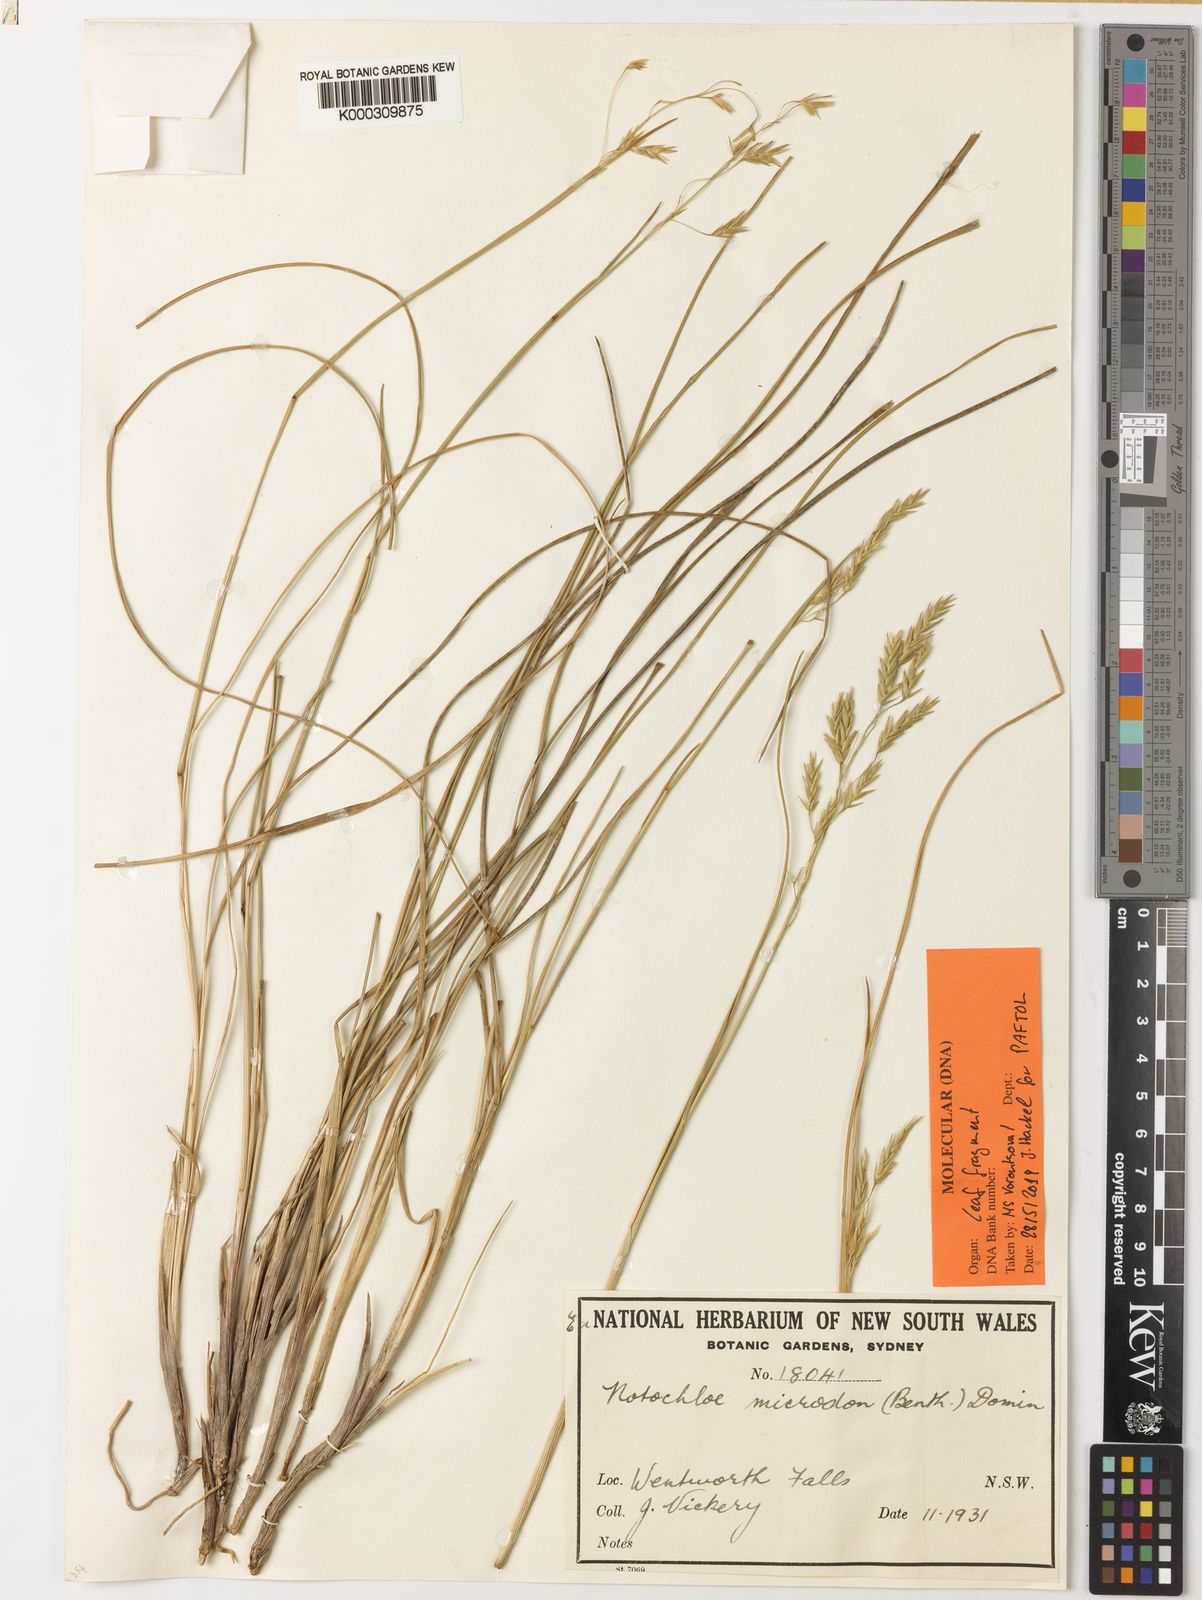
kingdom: Plantae
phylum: Tracheophyta
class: Liliopsida
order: Poales
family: Poaceae
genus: Notochloe
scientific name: Notochloe microdon
